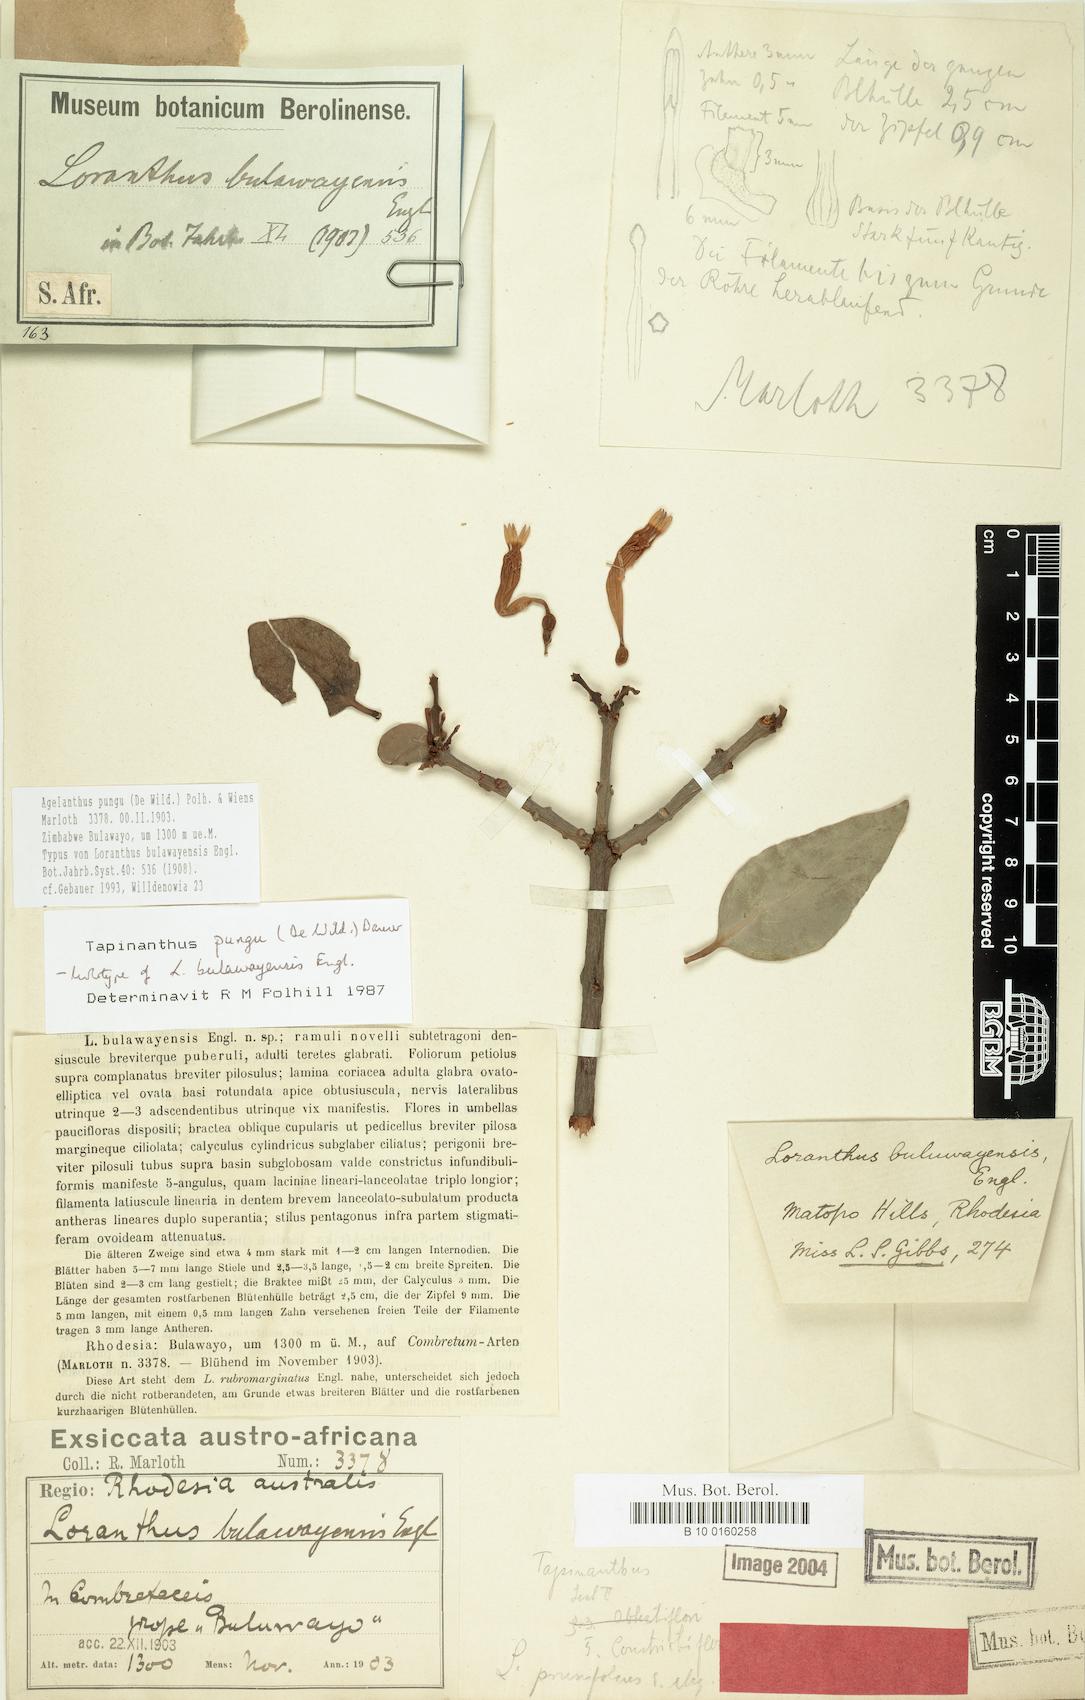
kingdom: Plantae
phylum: Tracheophyta
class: Magnoliopsida
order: Santalales
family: Loranthaceae
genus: Agelanthus
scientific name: Agelanthus pungu
